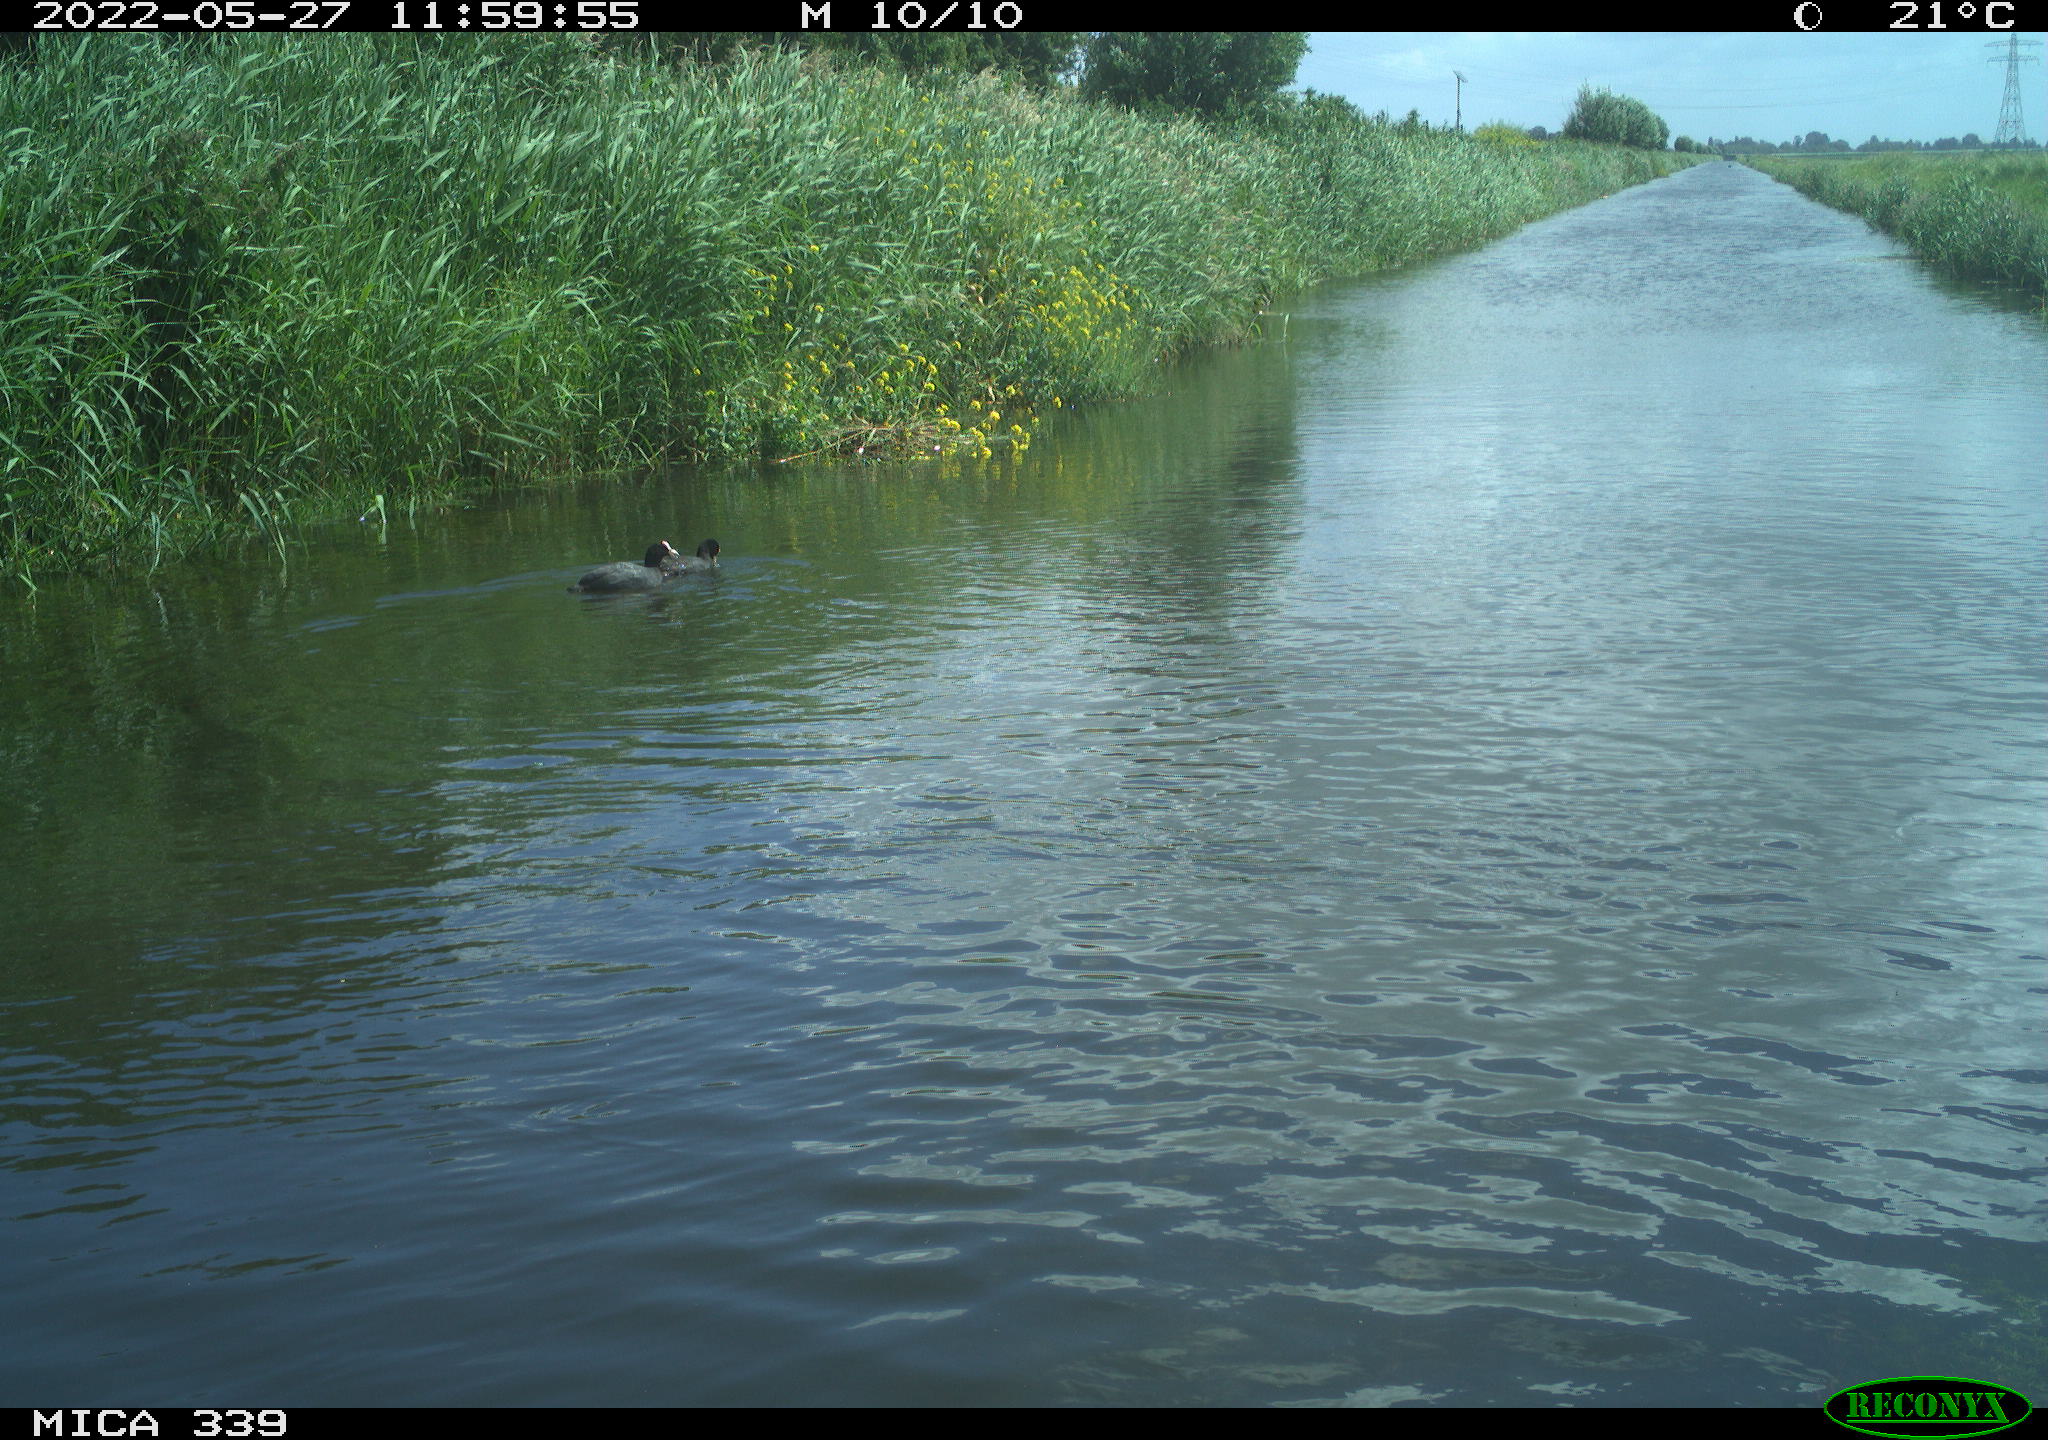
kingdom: Animalia
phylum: Chordata
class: Aves
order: Gruiformes
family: Rallidae
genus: Fulica
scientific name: Fulica atra
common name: Eurasian coot
